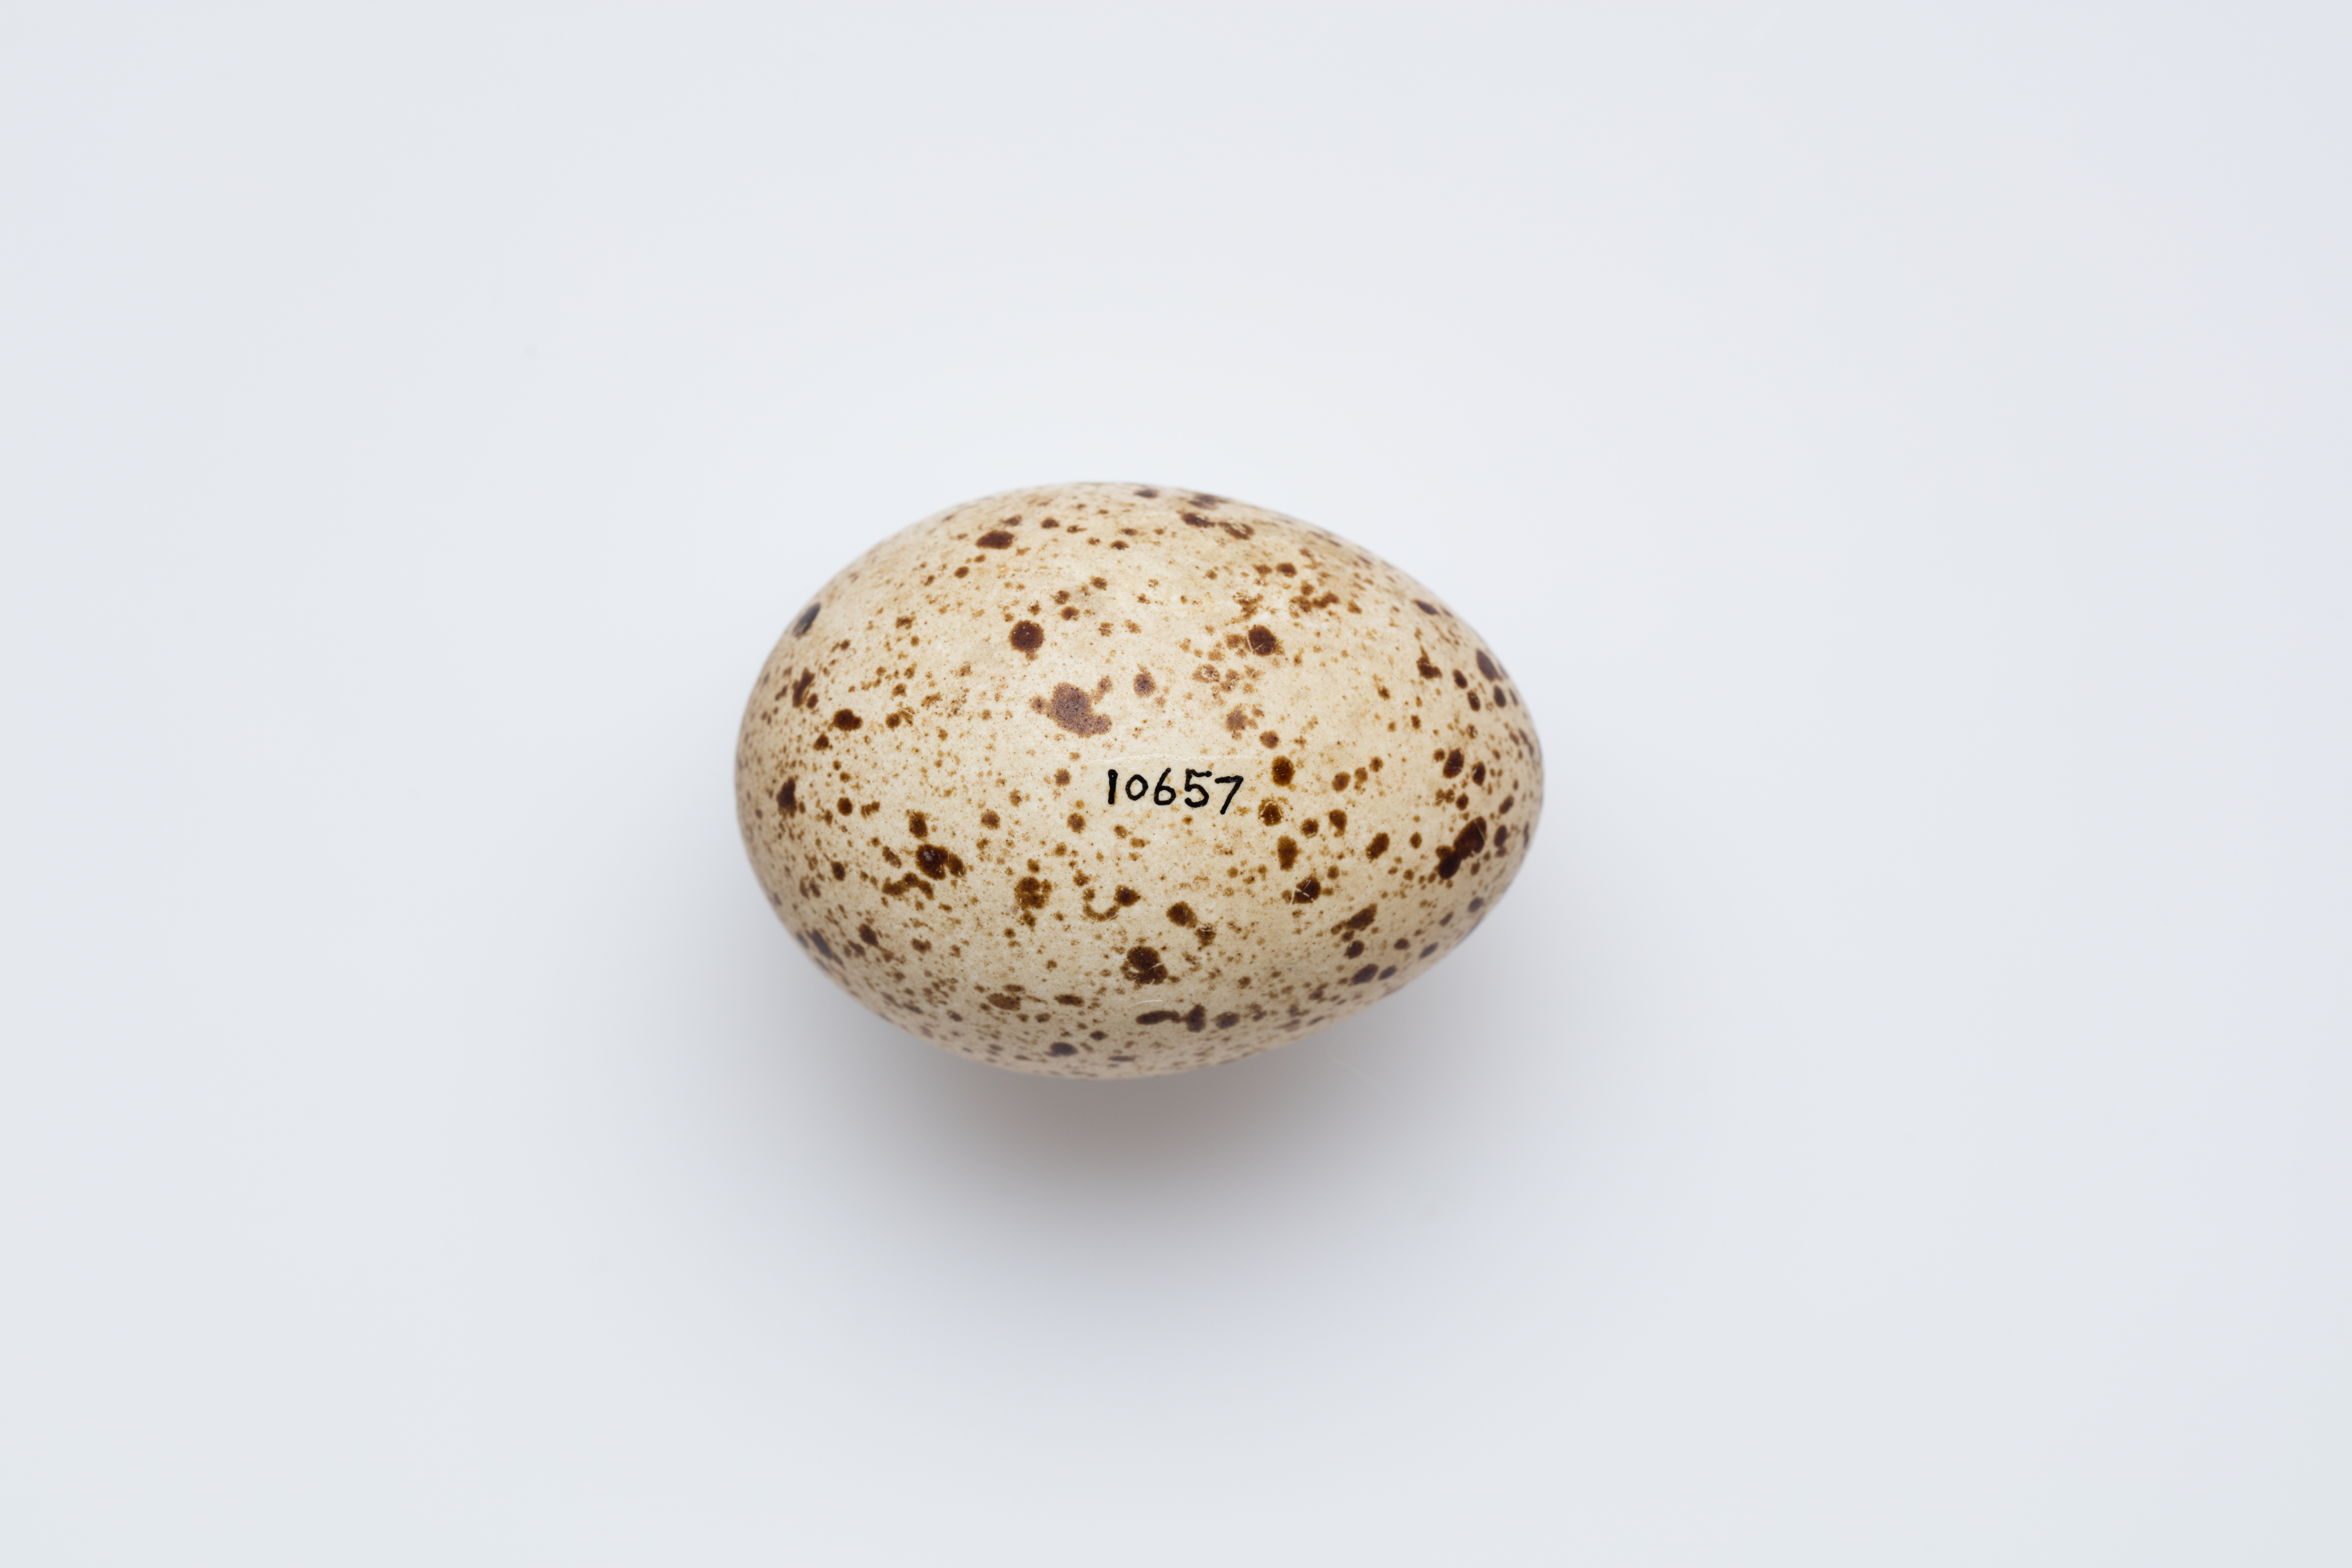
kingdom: Animalia
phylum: Chordata
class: Aves
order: Galliformes
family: Phasianidae
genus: Lyrurus
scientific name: Lyrurus tetrix
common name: Black grouse
